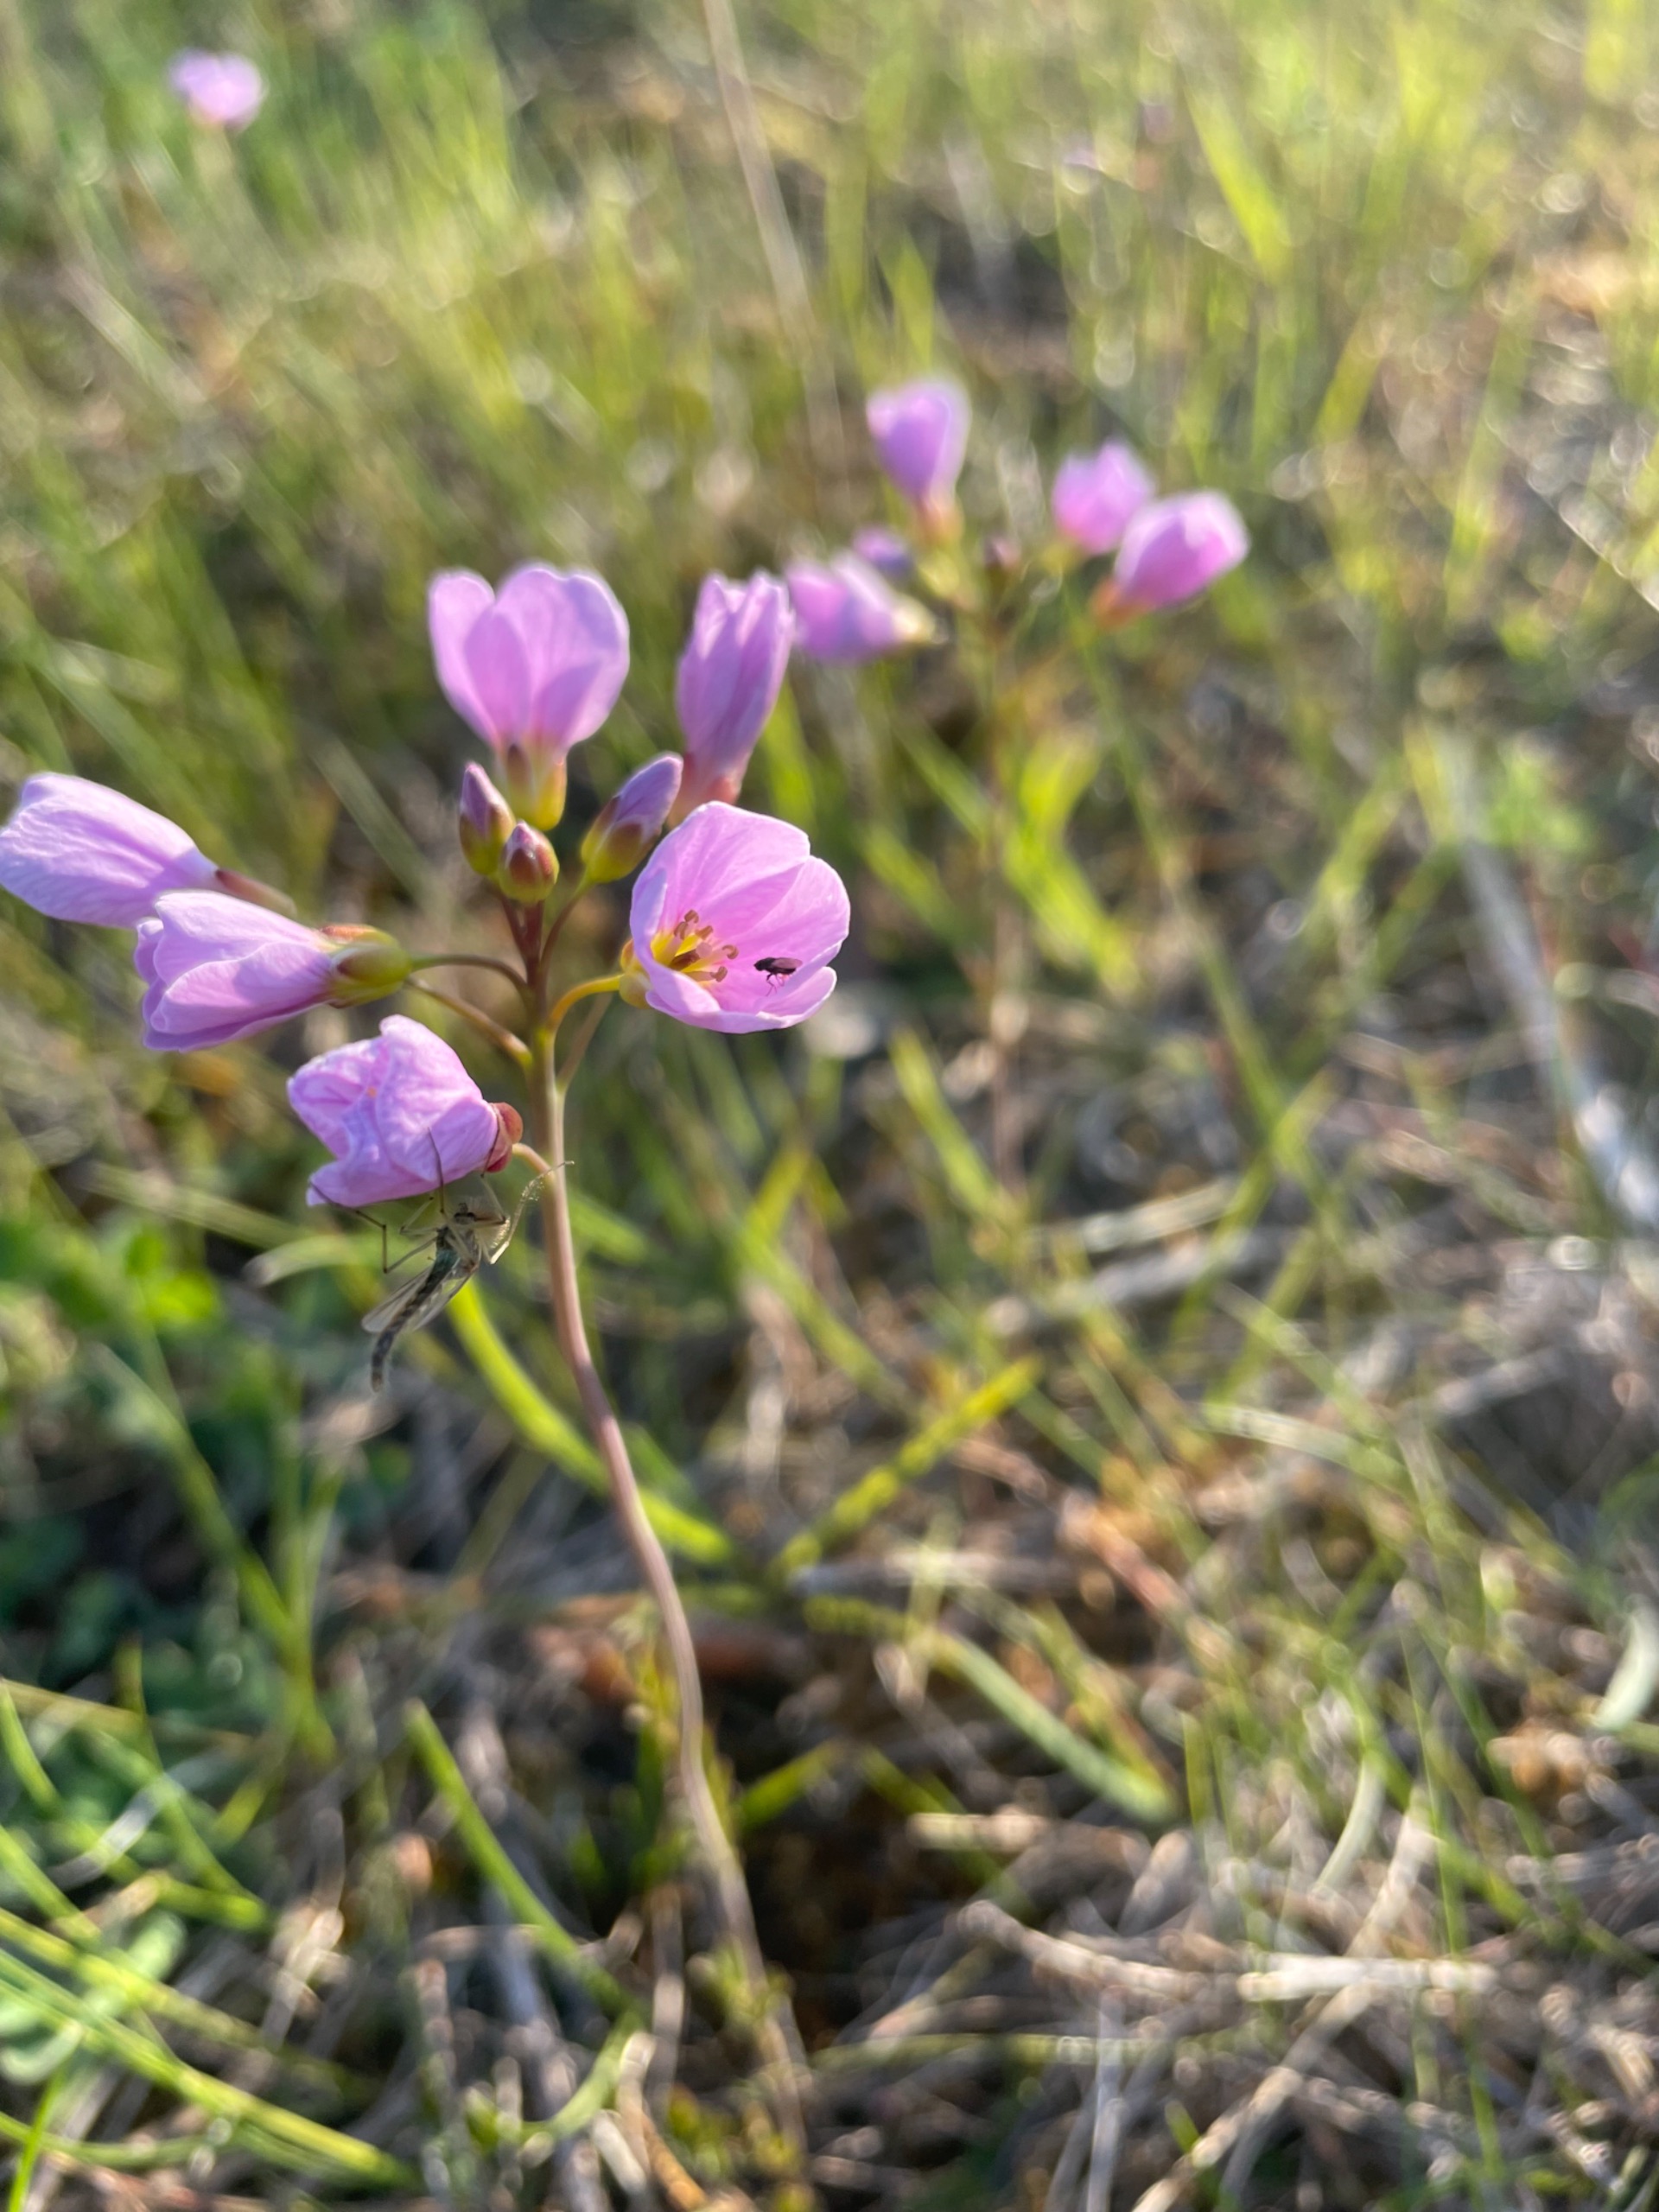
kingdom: Plantae
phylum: Tracheophyta
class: Magnoliopsida
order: Brassicales
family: Brassicaceae
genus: Cardamine
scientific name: Cardamine pratensis
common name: Engkarse
